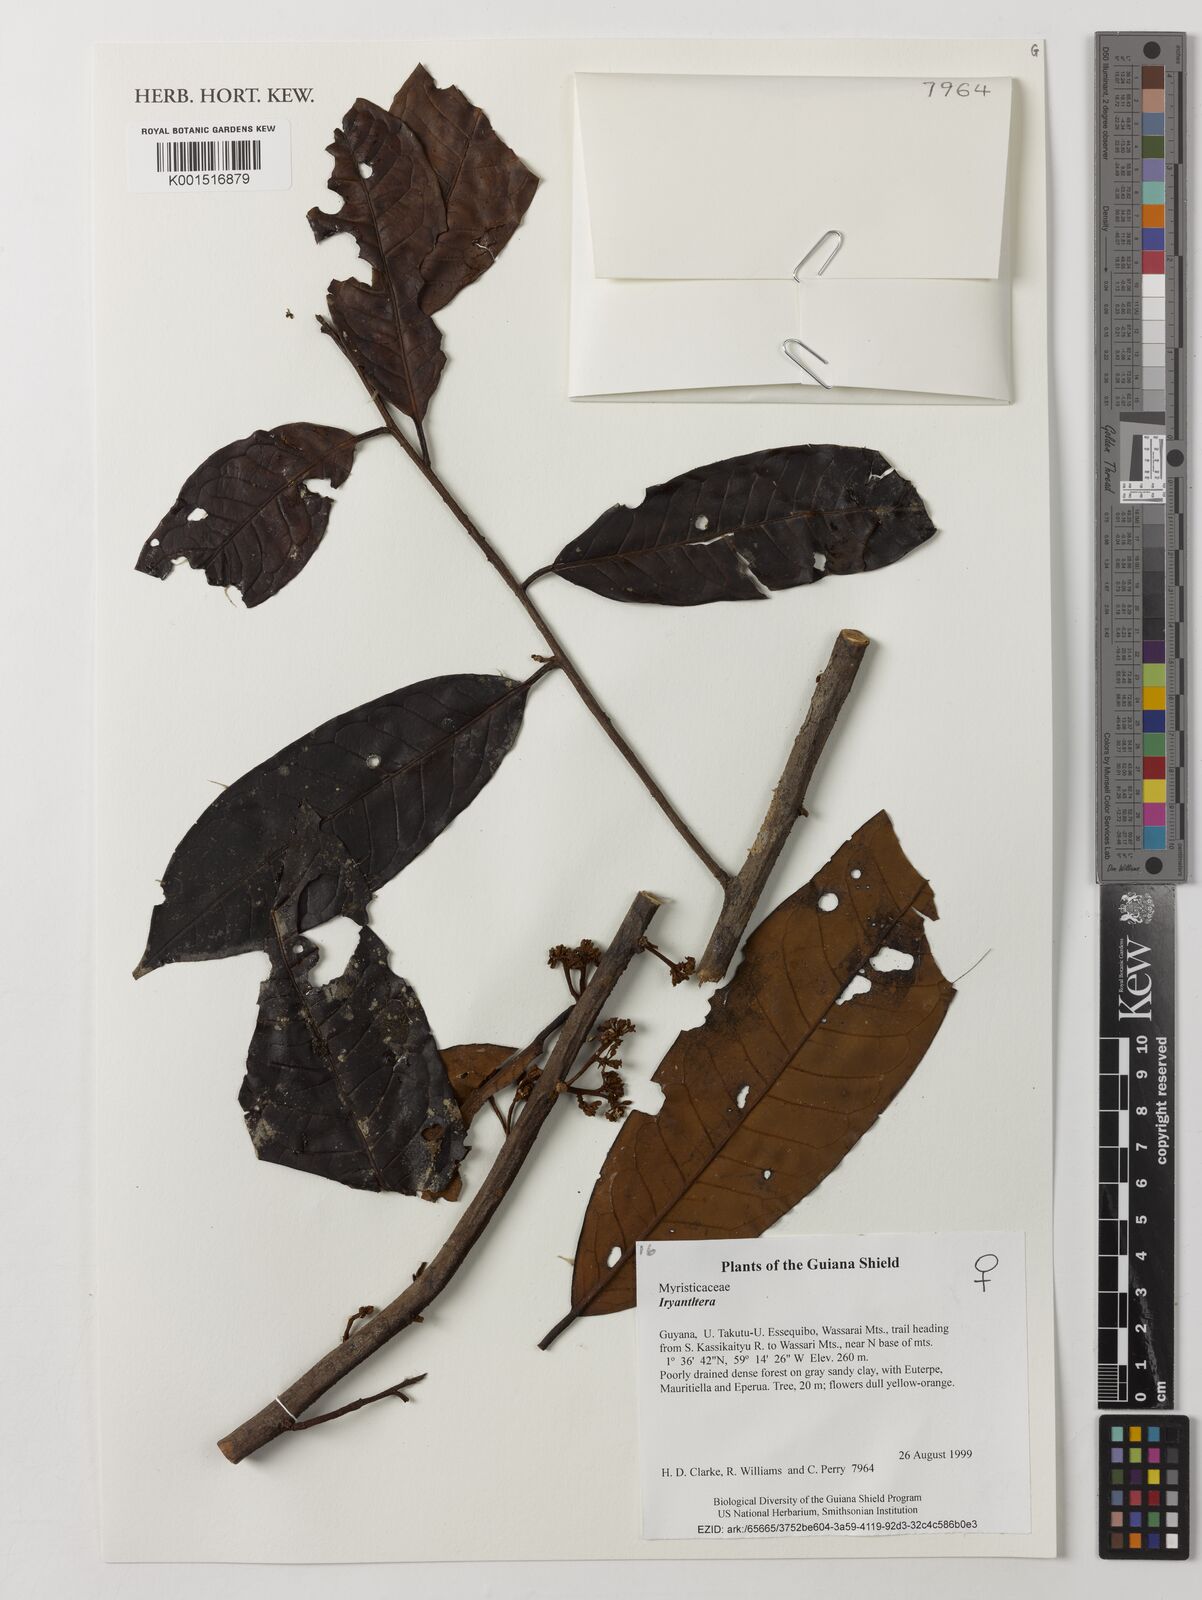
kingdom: Plantae
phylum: Tracheophyta
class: Magnoliopsida
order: Magnoliales
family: Myristicaceae
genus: Iryanthera
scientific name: Iryanthera
